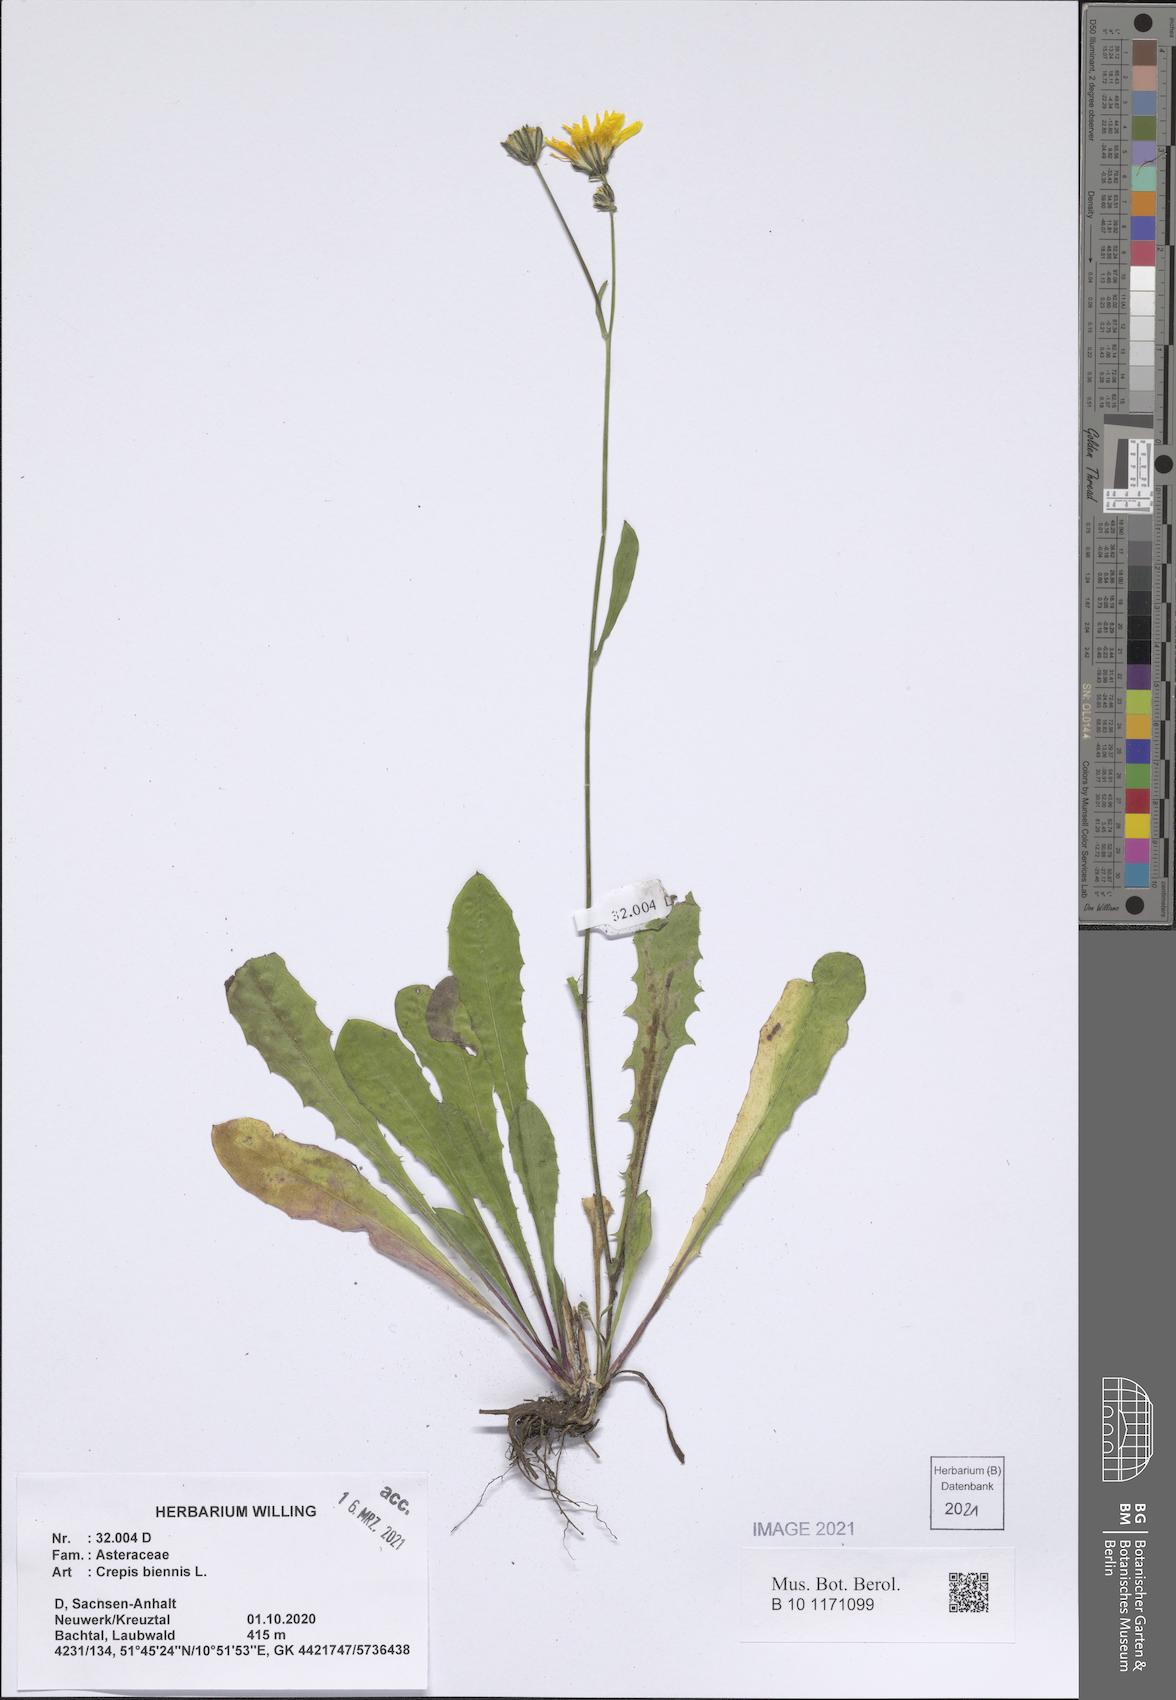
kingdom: Plantae
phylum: Tracheophyta
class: Magnoliopsida
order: Asterales
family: Asteraceae
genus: Crepis
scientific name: Crepis biennis
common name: Rough hawk's-beard
